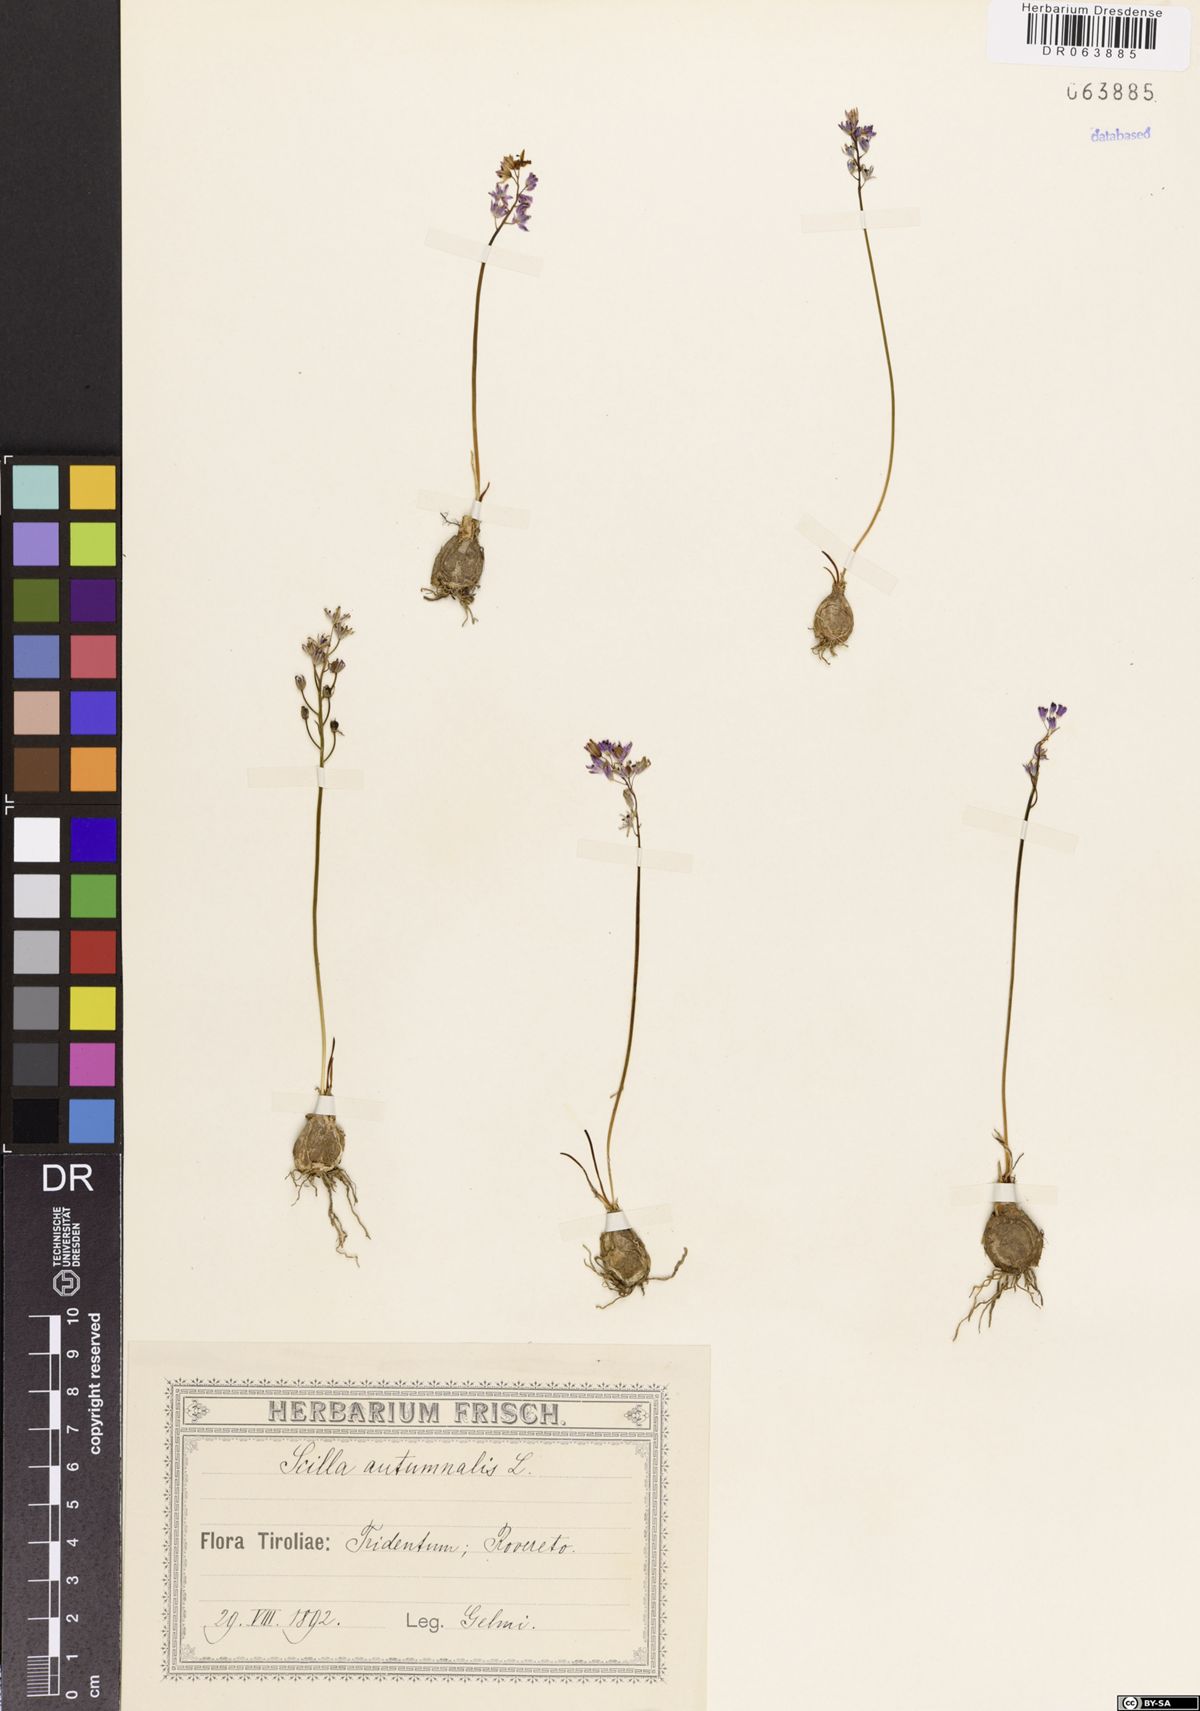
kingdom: Plantae
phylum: Tracheophyta
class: Liliopsida
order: Asparagales
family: Asparagaceae
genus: Prospero
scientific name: Prospero autumnale
